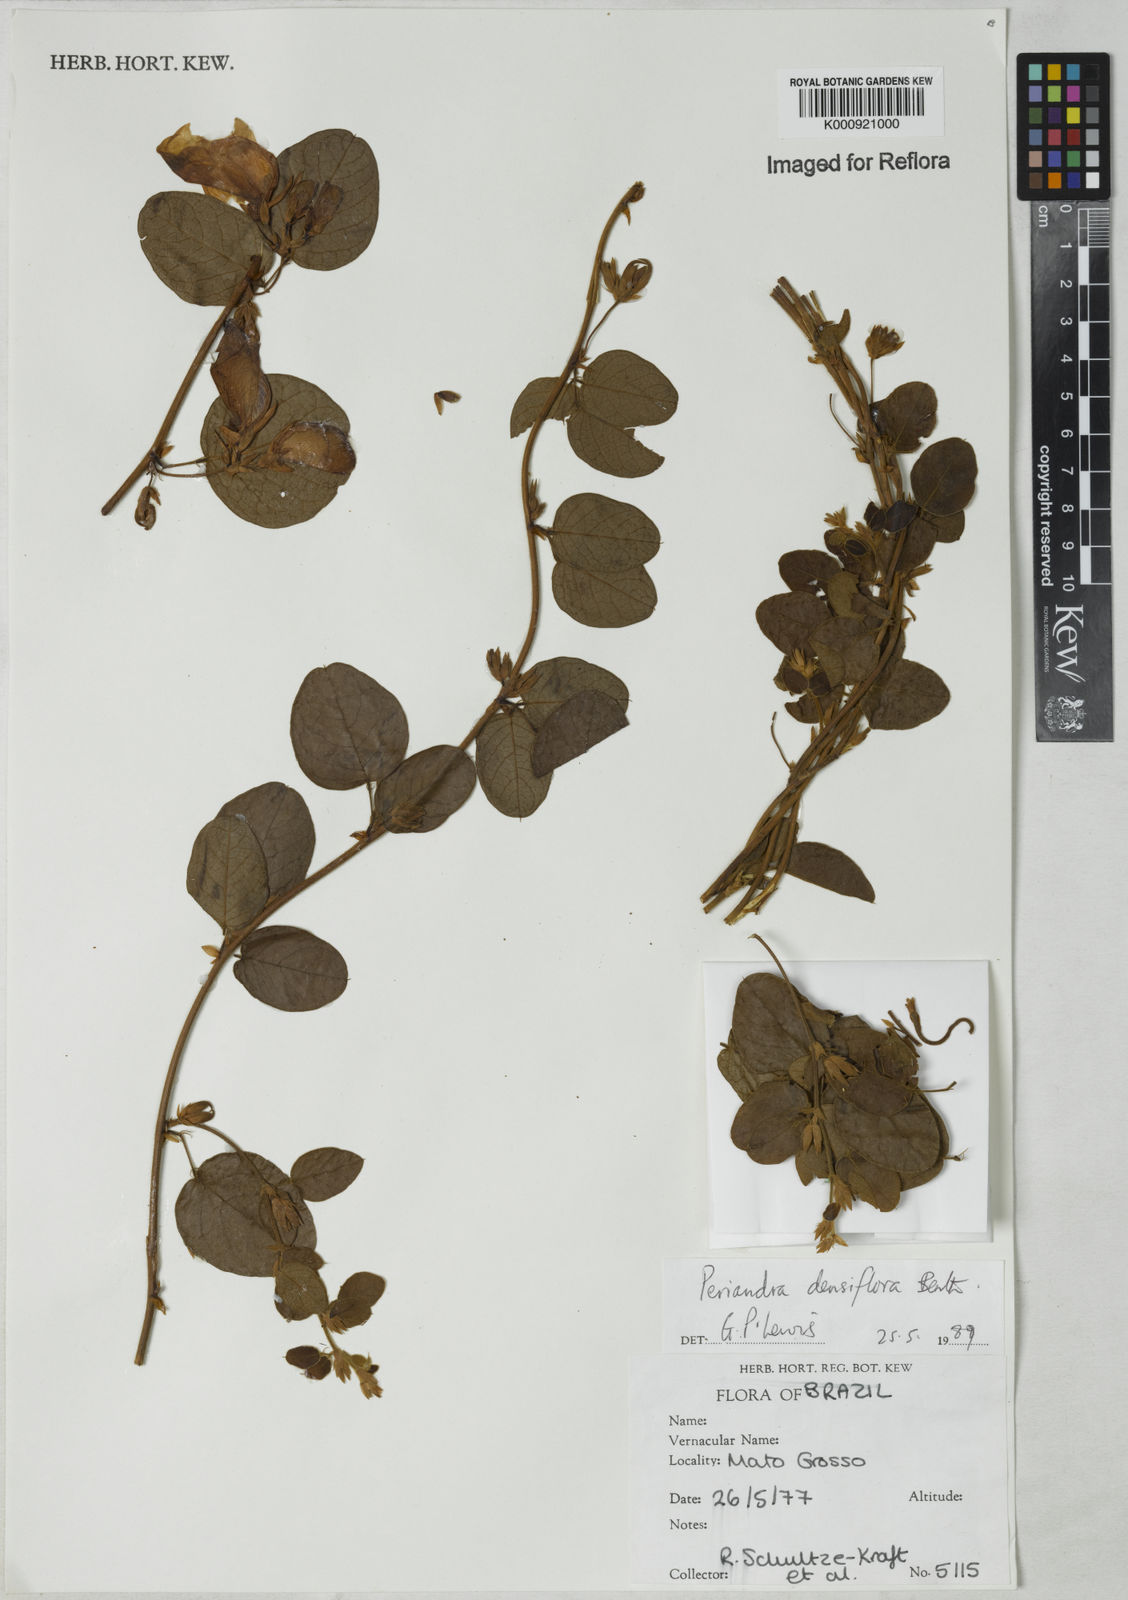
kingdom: Plantae
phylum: Tracheophyta
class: Magnoliopsida
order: Fabales
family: Fabaceae
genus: Periandra
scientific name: Periandra densiflora
